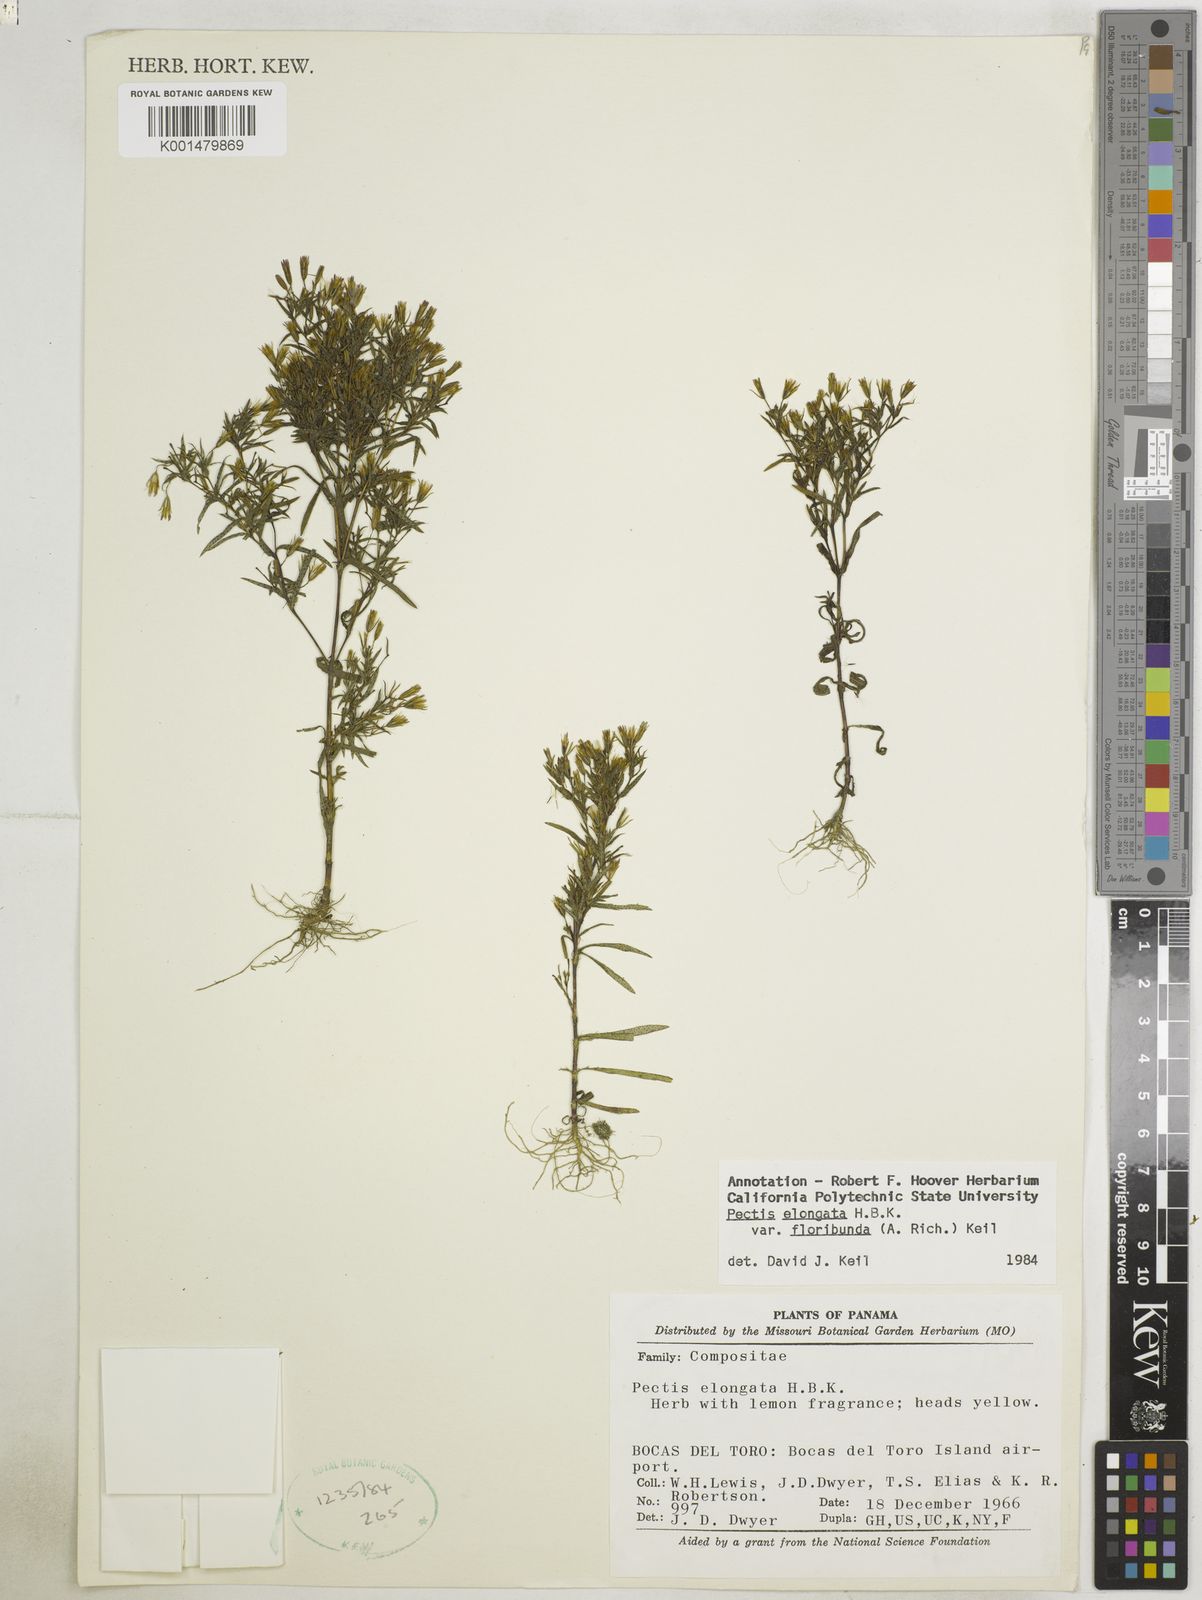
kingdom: Plantae
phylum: Tracheophyta
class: Magnoliopsida
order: Asterales
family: Asteraceae
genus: Pectis
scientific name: Pectis elongata
